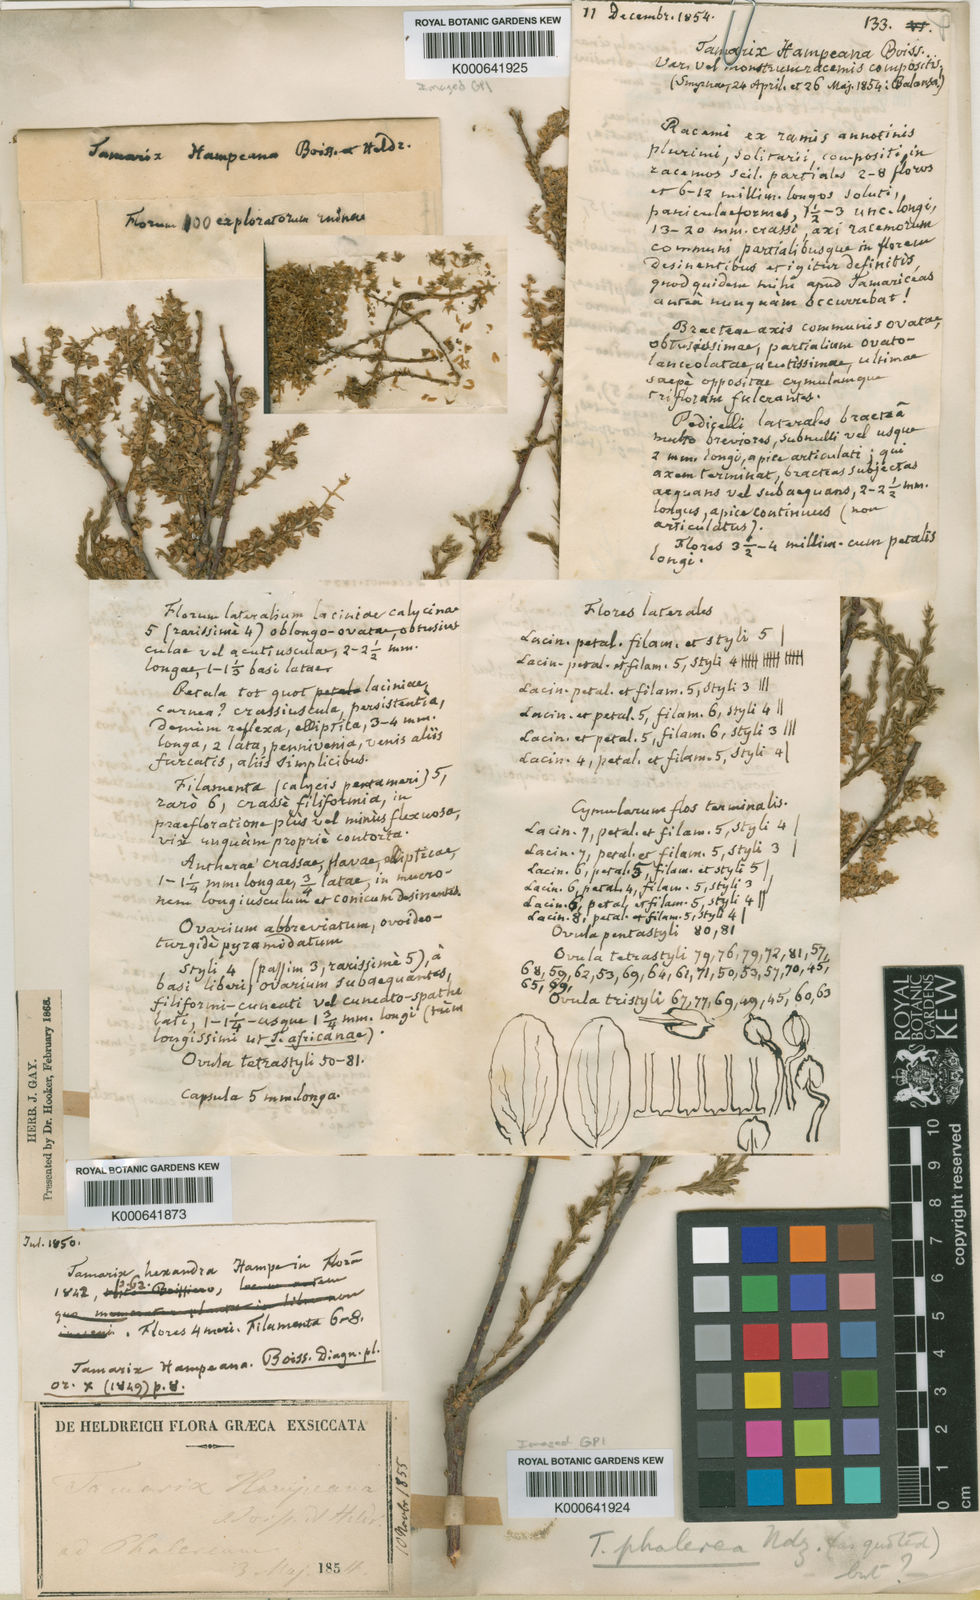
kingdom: Plantae
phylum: Tracheophyta
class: Magnoliopsida
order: Caryophyllales
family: Tamaricaceae
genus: Tamarix
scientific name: Tamarix hampeana
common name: Hampe’s tamarisk
